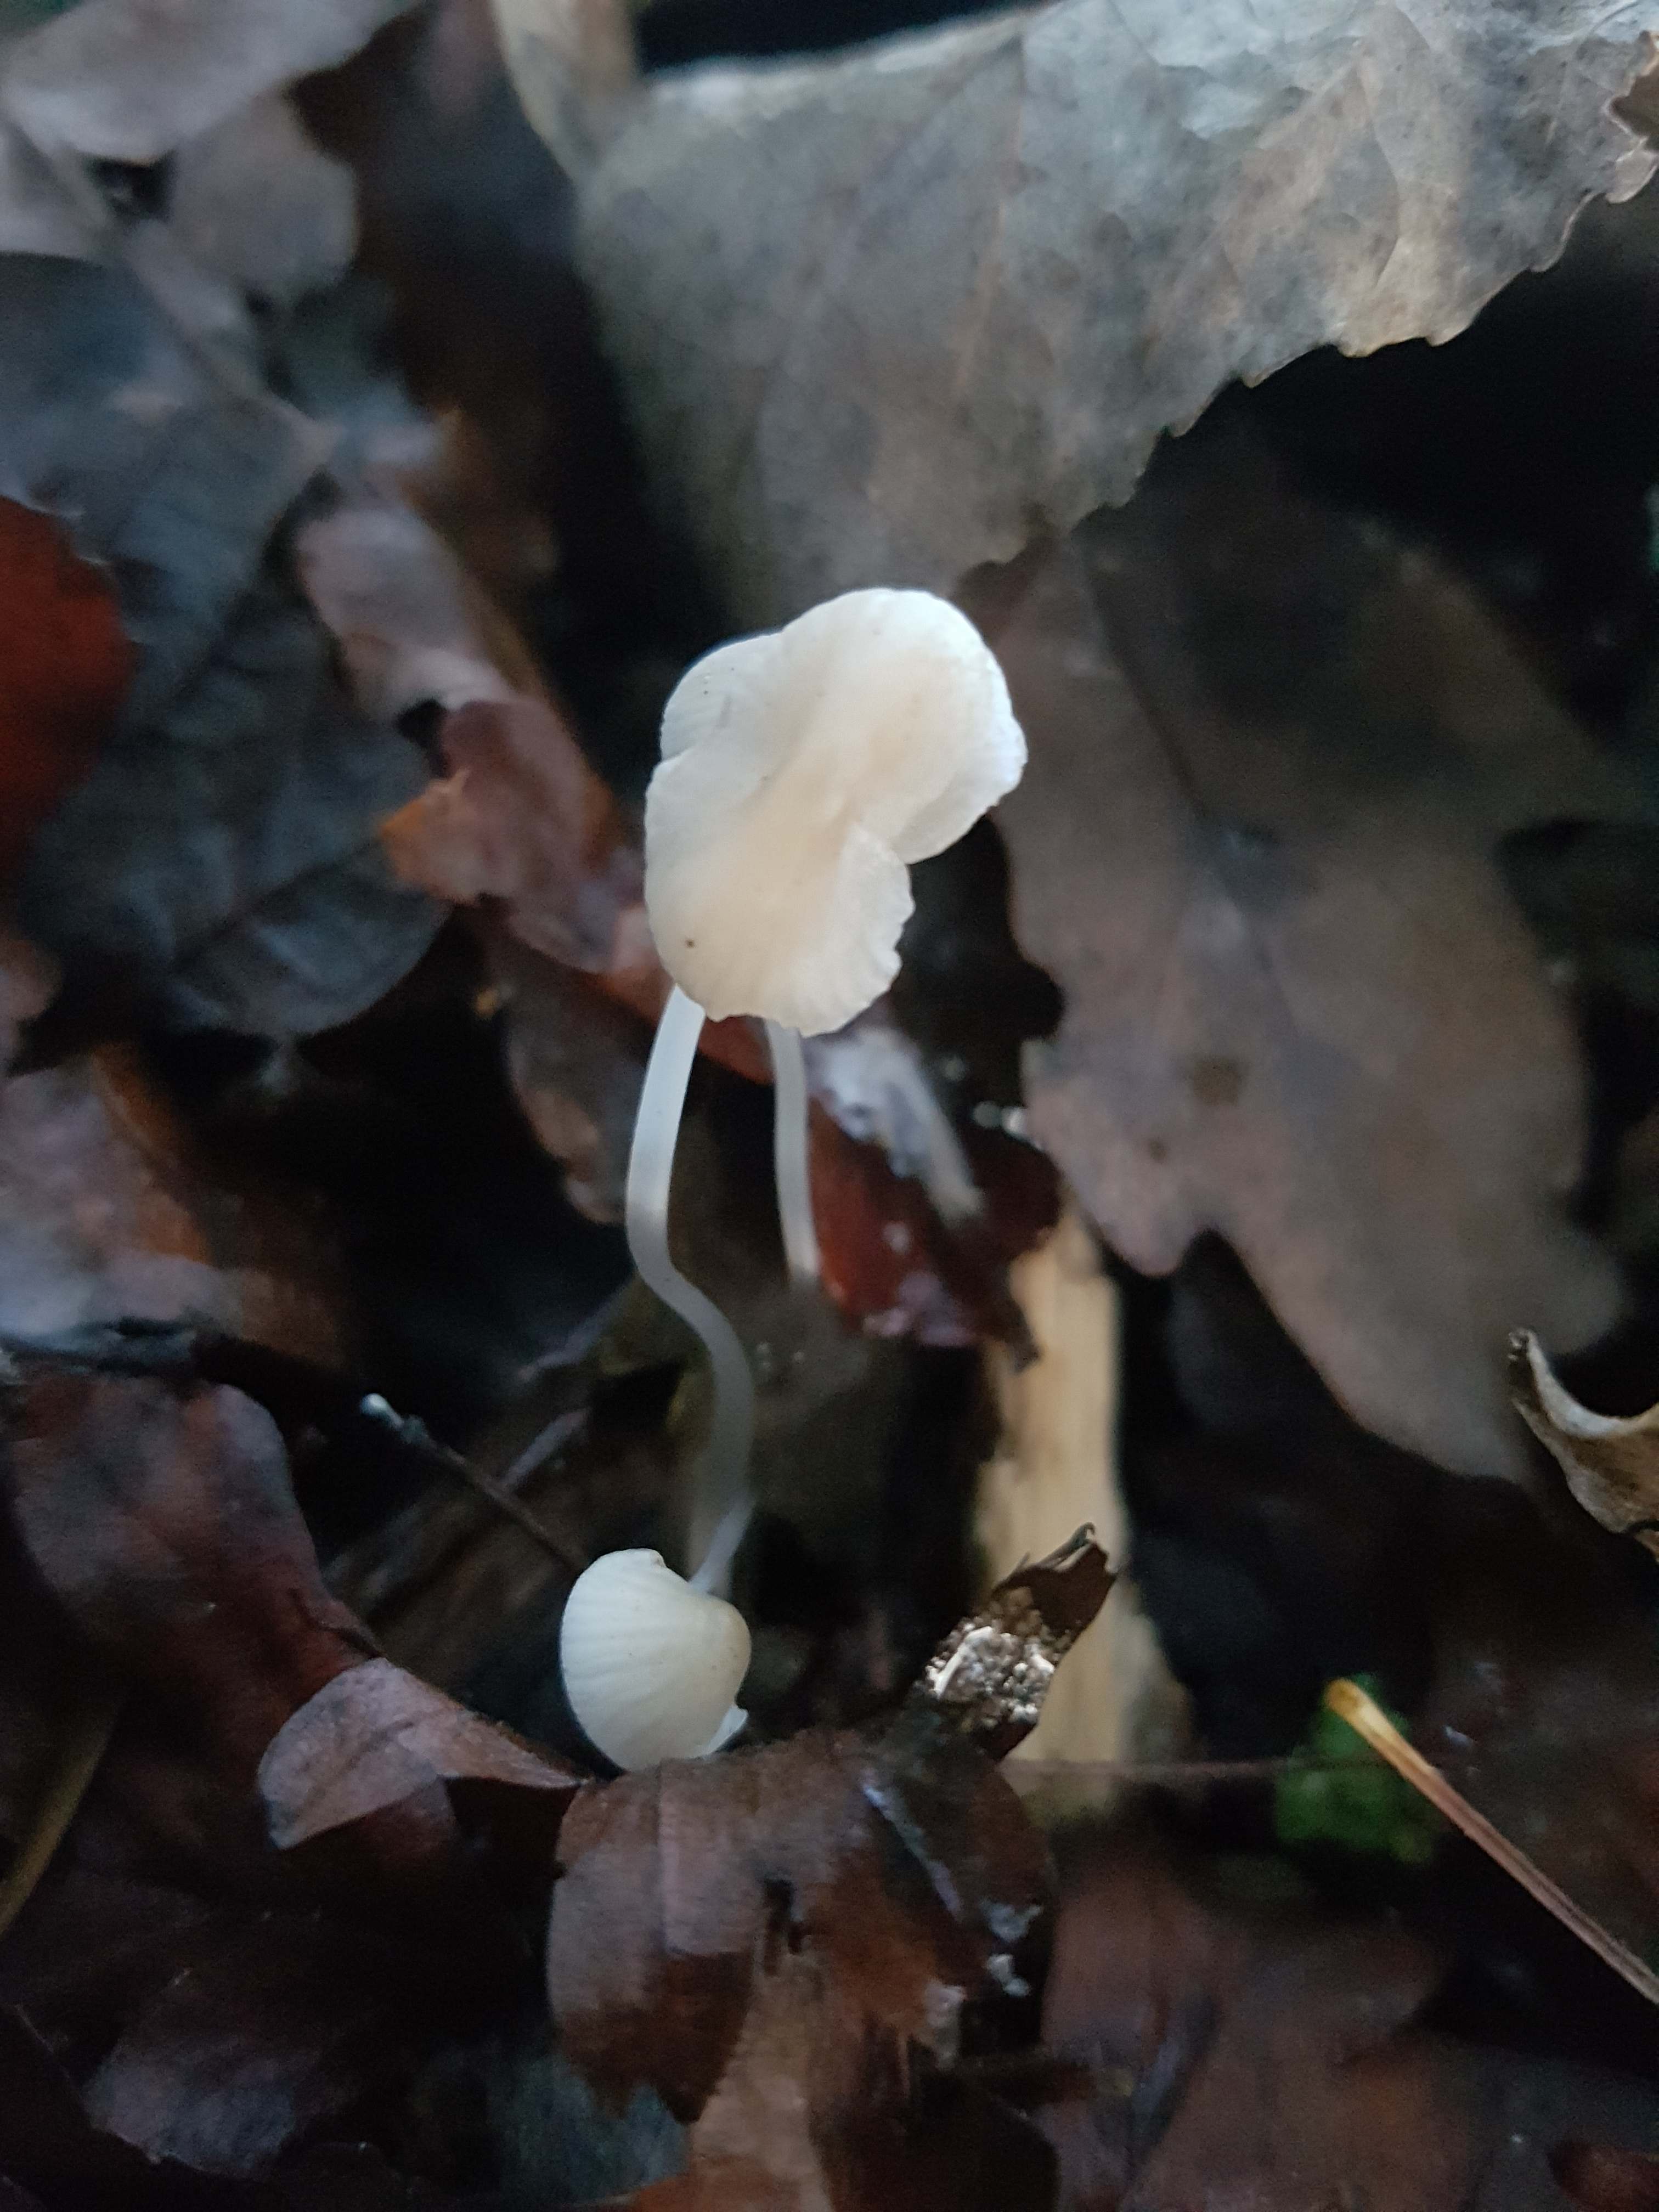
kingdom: Fungi
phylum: Basidiomycota
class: Agaricomycetes
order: Agaricales
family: Mycenaceae
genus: Mycena
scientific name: Mycena
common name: huesvamp
